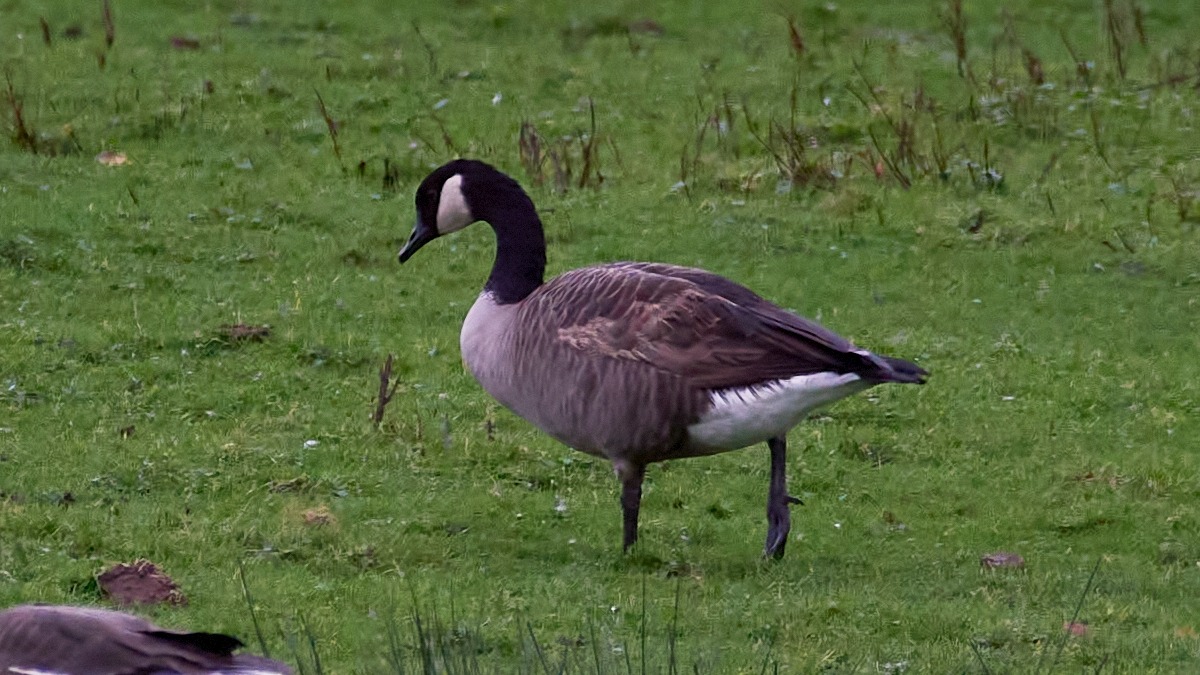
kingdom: Animalia
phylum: Chordata
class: Aves
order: Anseriformes
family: Anatidae
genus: Branta
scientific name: Branta canadensis
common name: Canadagås
